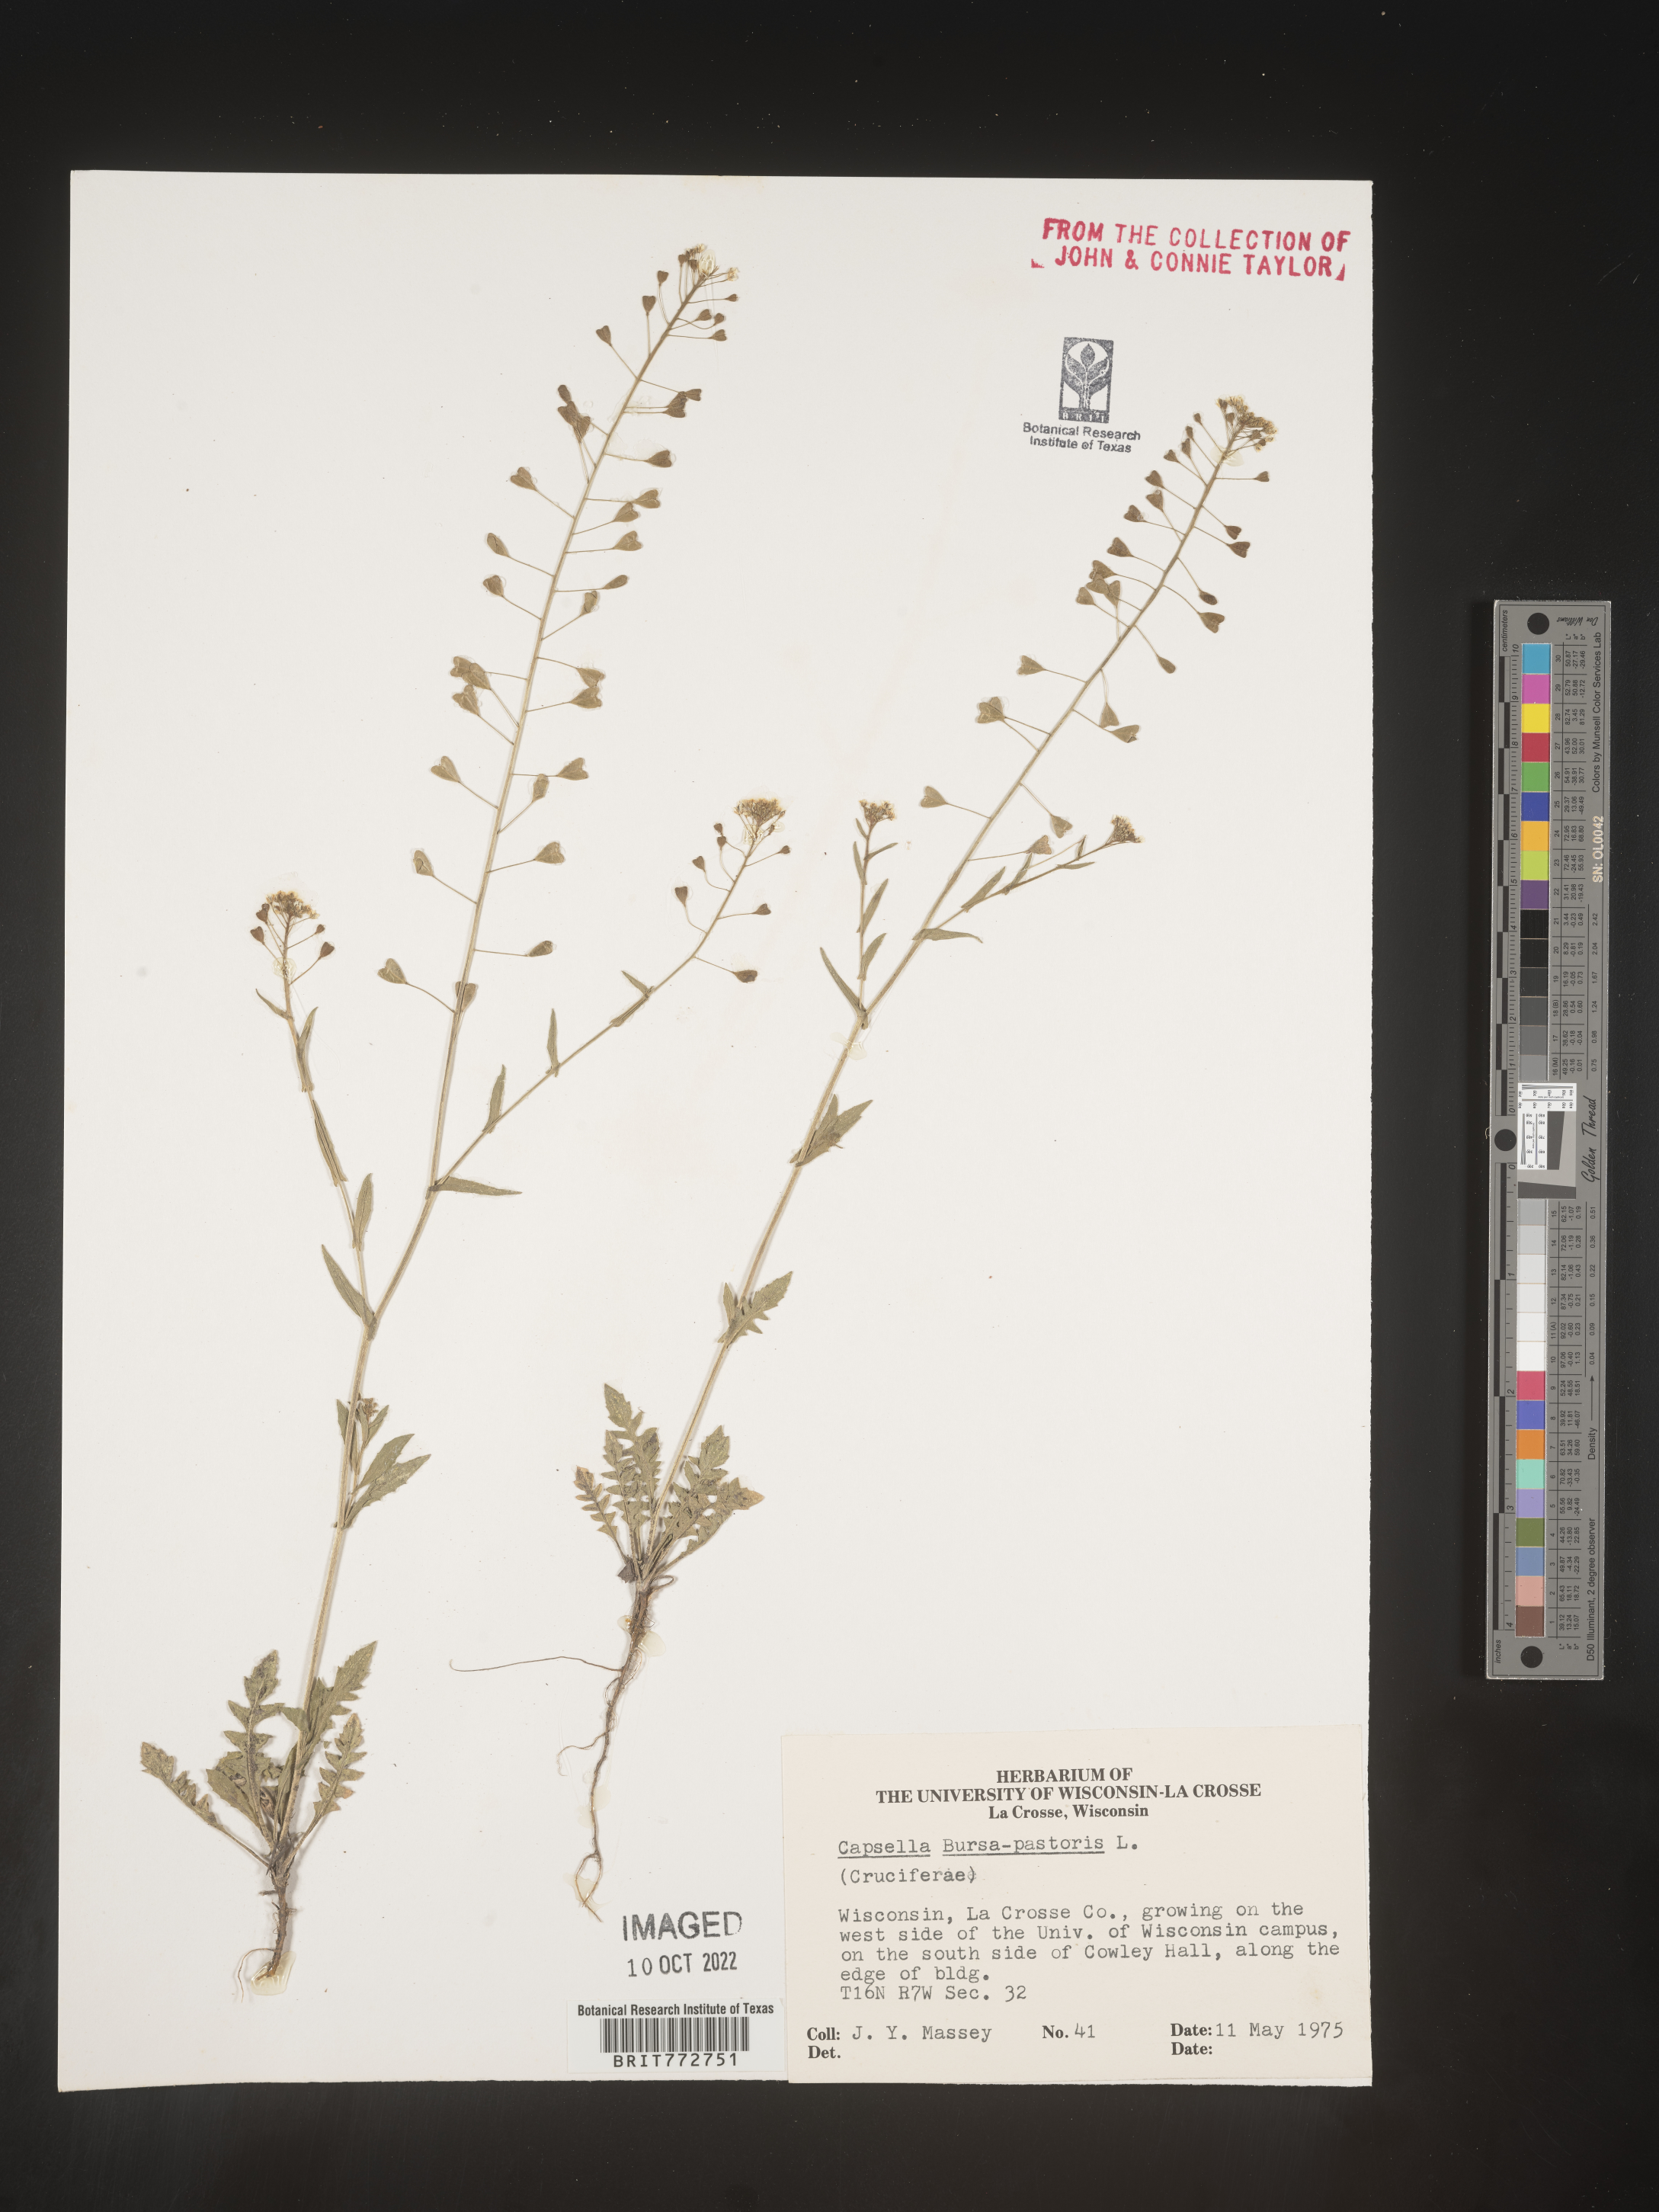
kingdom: Plantae
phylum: Tracheophyta
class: Magnoliopsida
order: Brassicales
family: Brassicaceae
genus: Capsella
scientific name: Capsella bursa-pastoris
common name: Shepherd's purse
